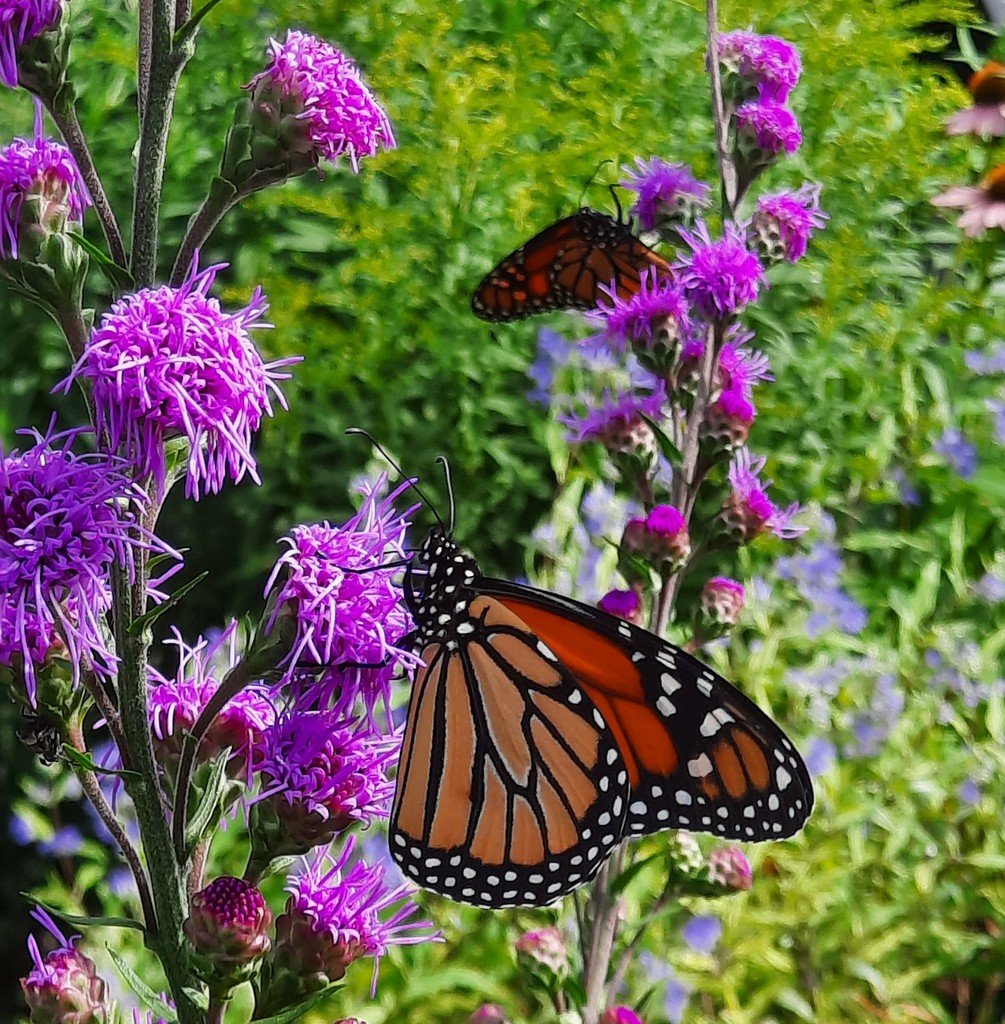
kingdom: Animalia
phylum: Arthropoda
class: Insecta
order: Lepidoptera
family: Nymphalidae
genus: Danaus
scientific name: Danaus plexippus
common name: Monarch
